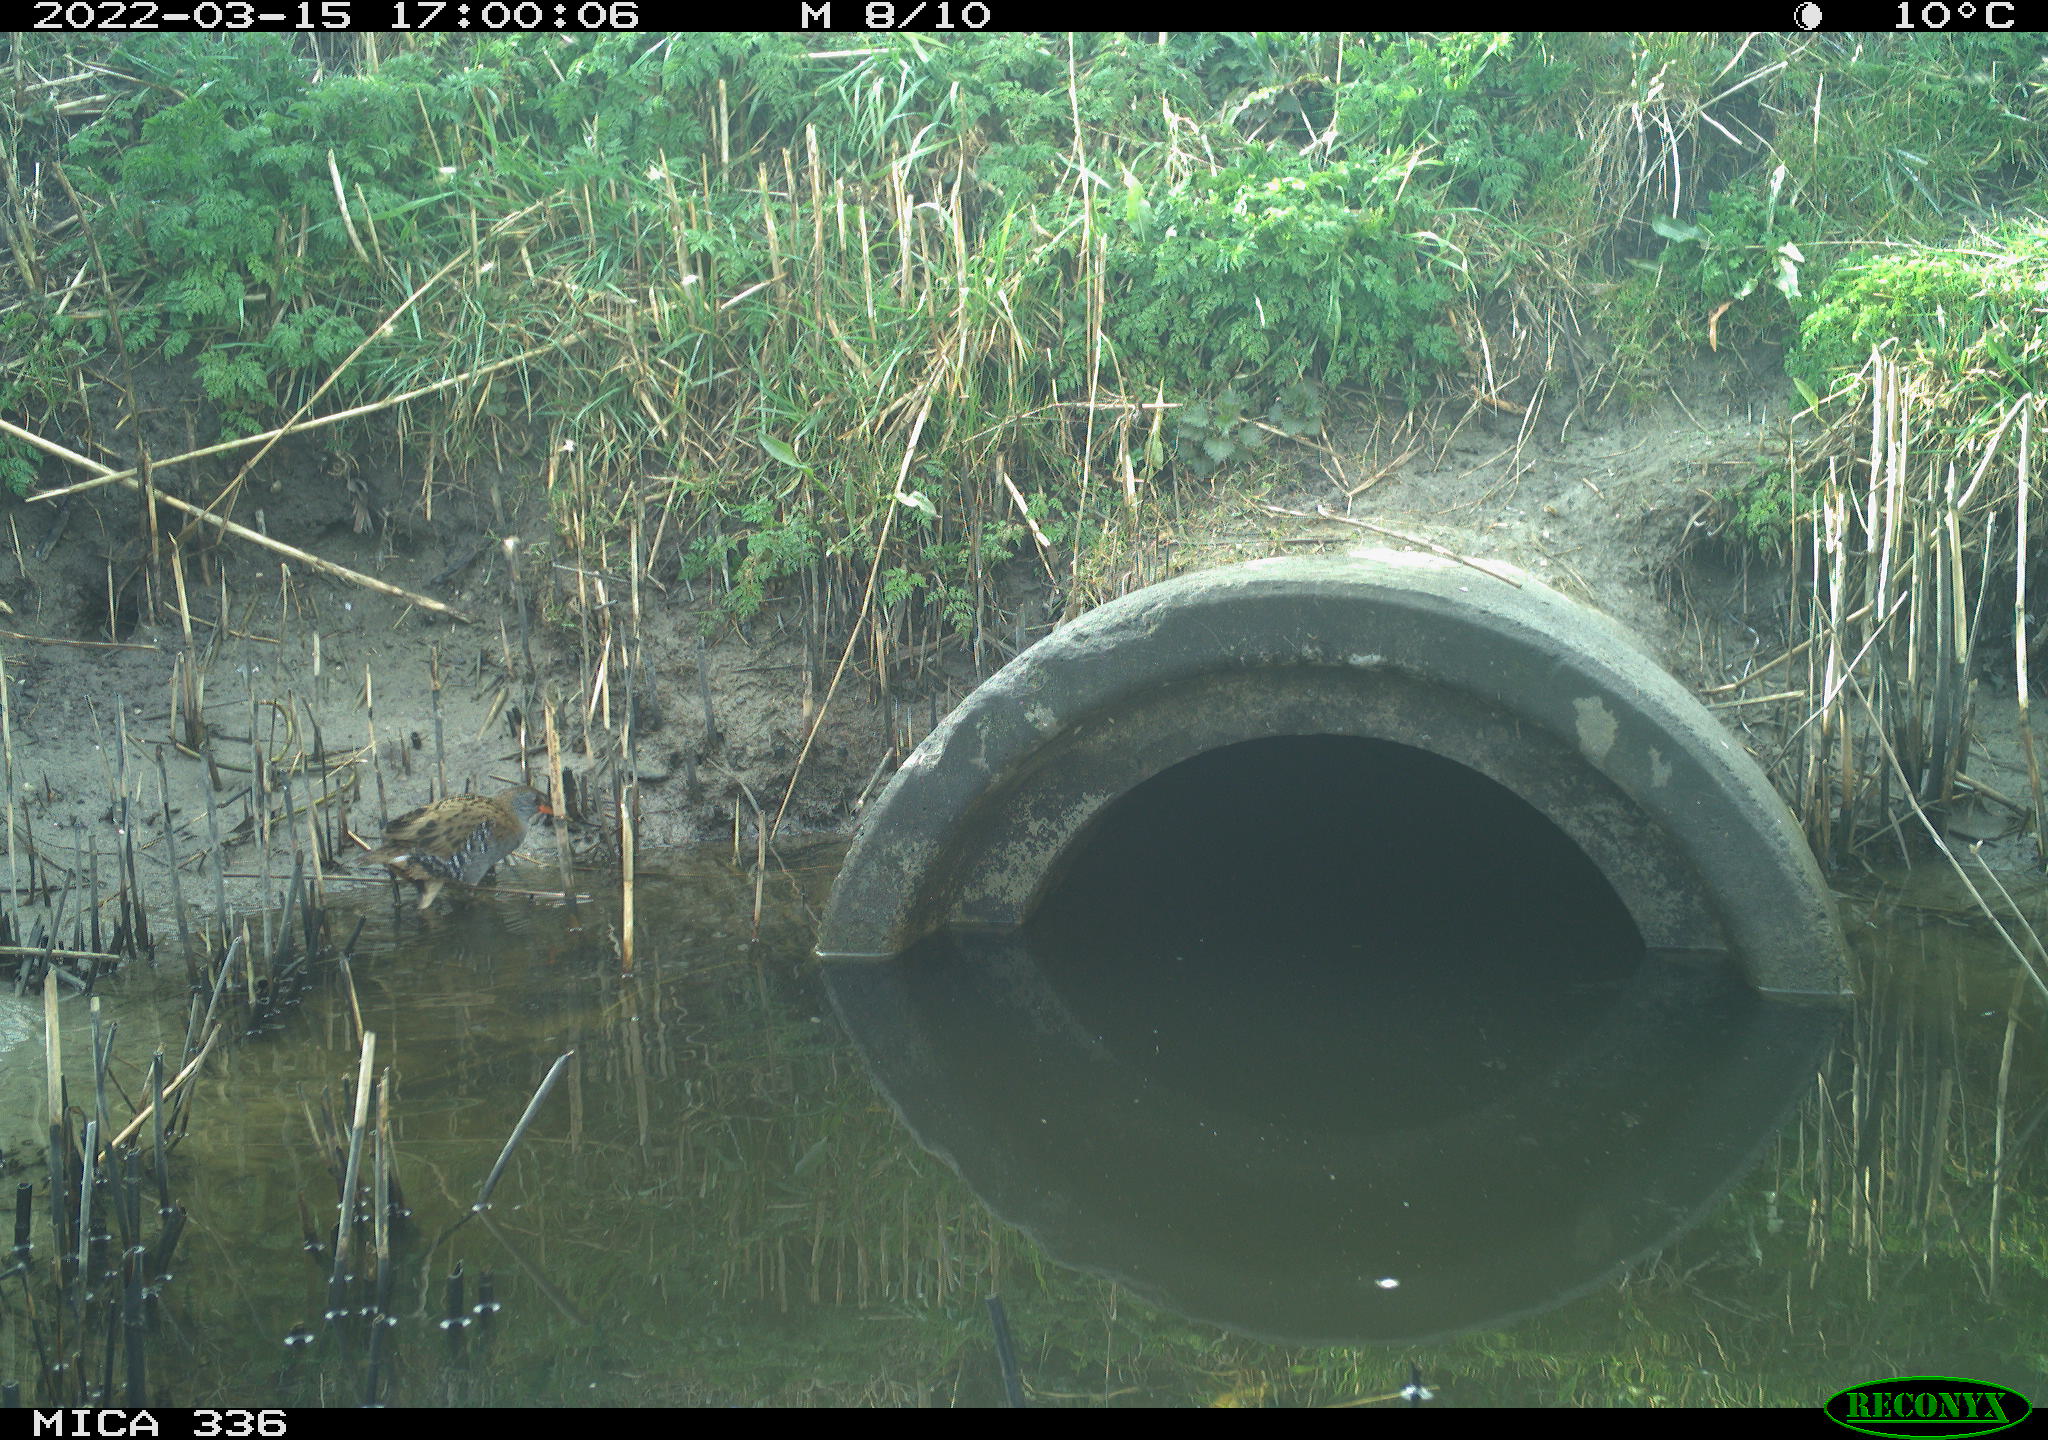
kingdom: Animalia
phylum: Chordata
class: Aves
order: Gruiformes
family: Rallidae
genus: Rallus
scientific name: Rallus aquaticus
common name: Water rail
